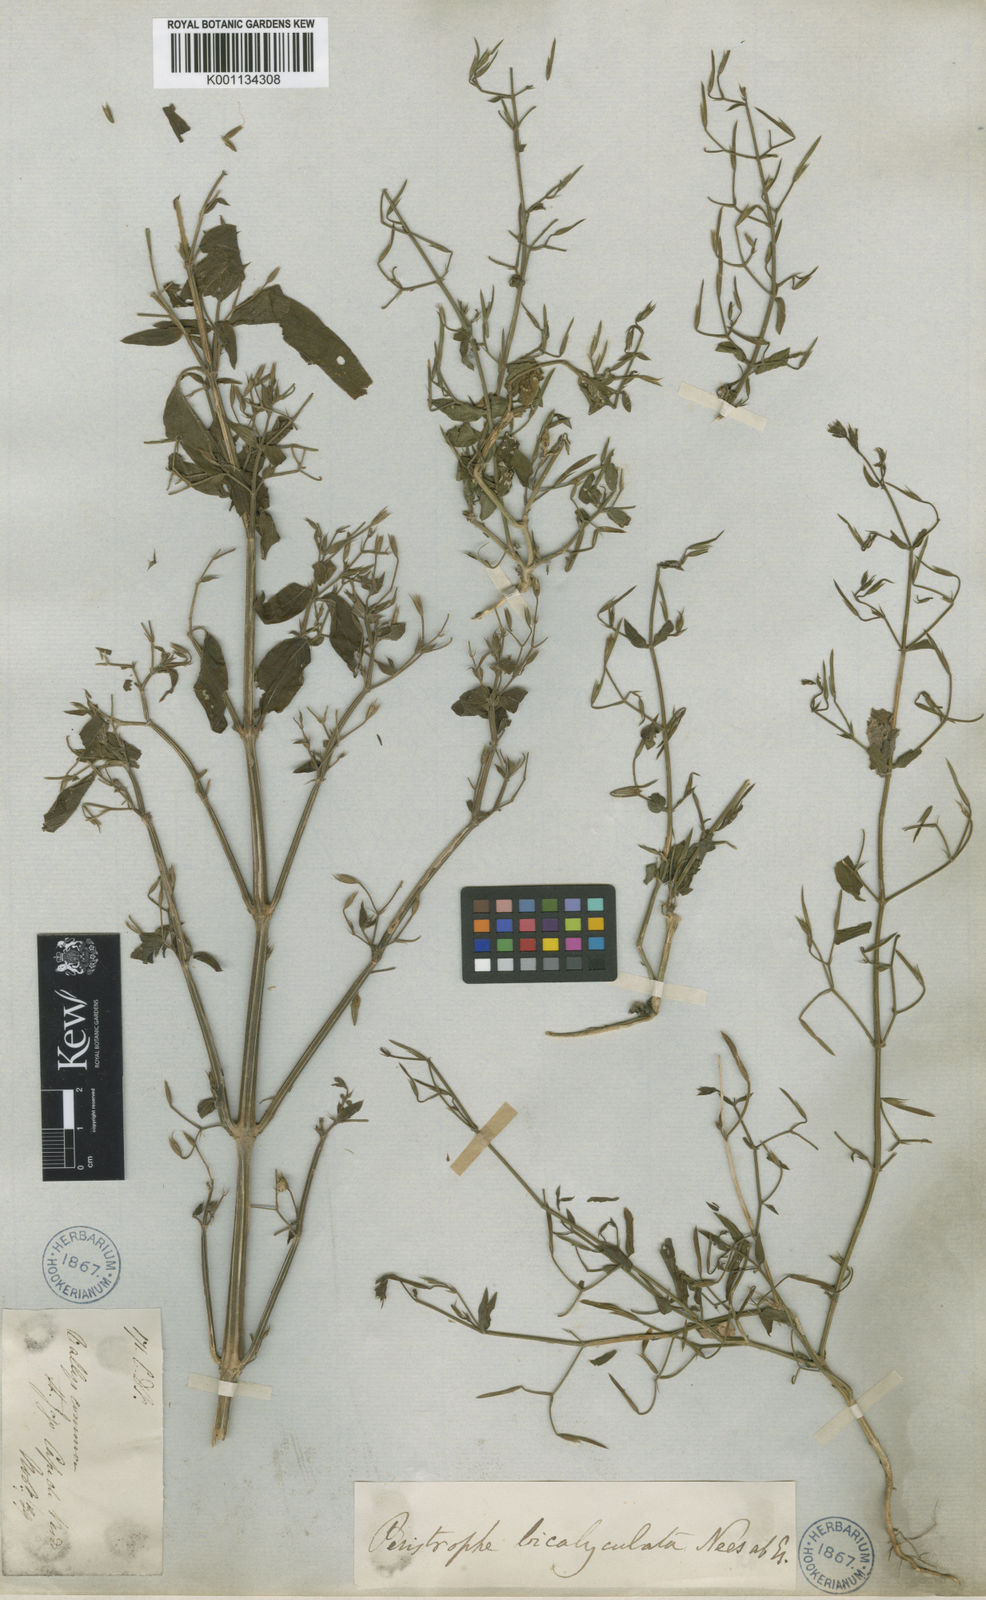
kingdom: Plantae
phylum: Tracheophyta
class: Magnoliopsida
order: Lamiales
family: Acanthaceae
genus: Dicliptera
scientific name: Dicliptera paniculata
